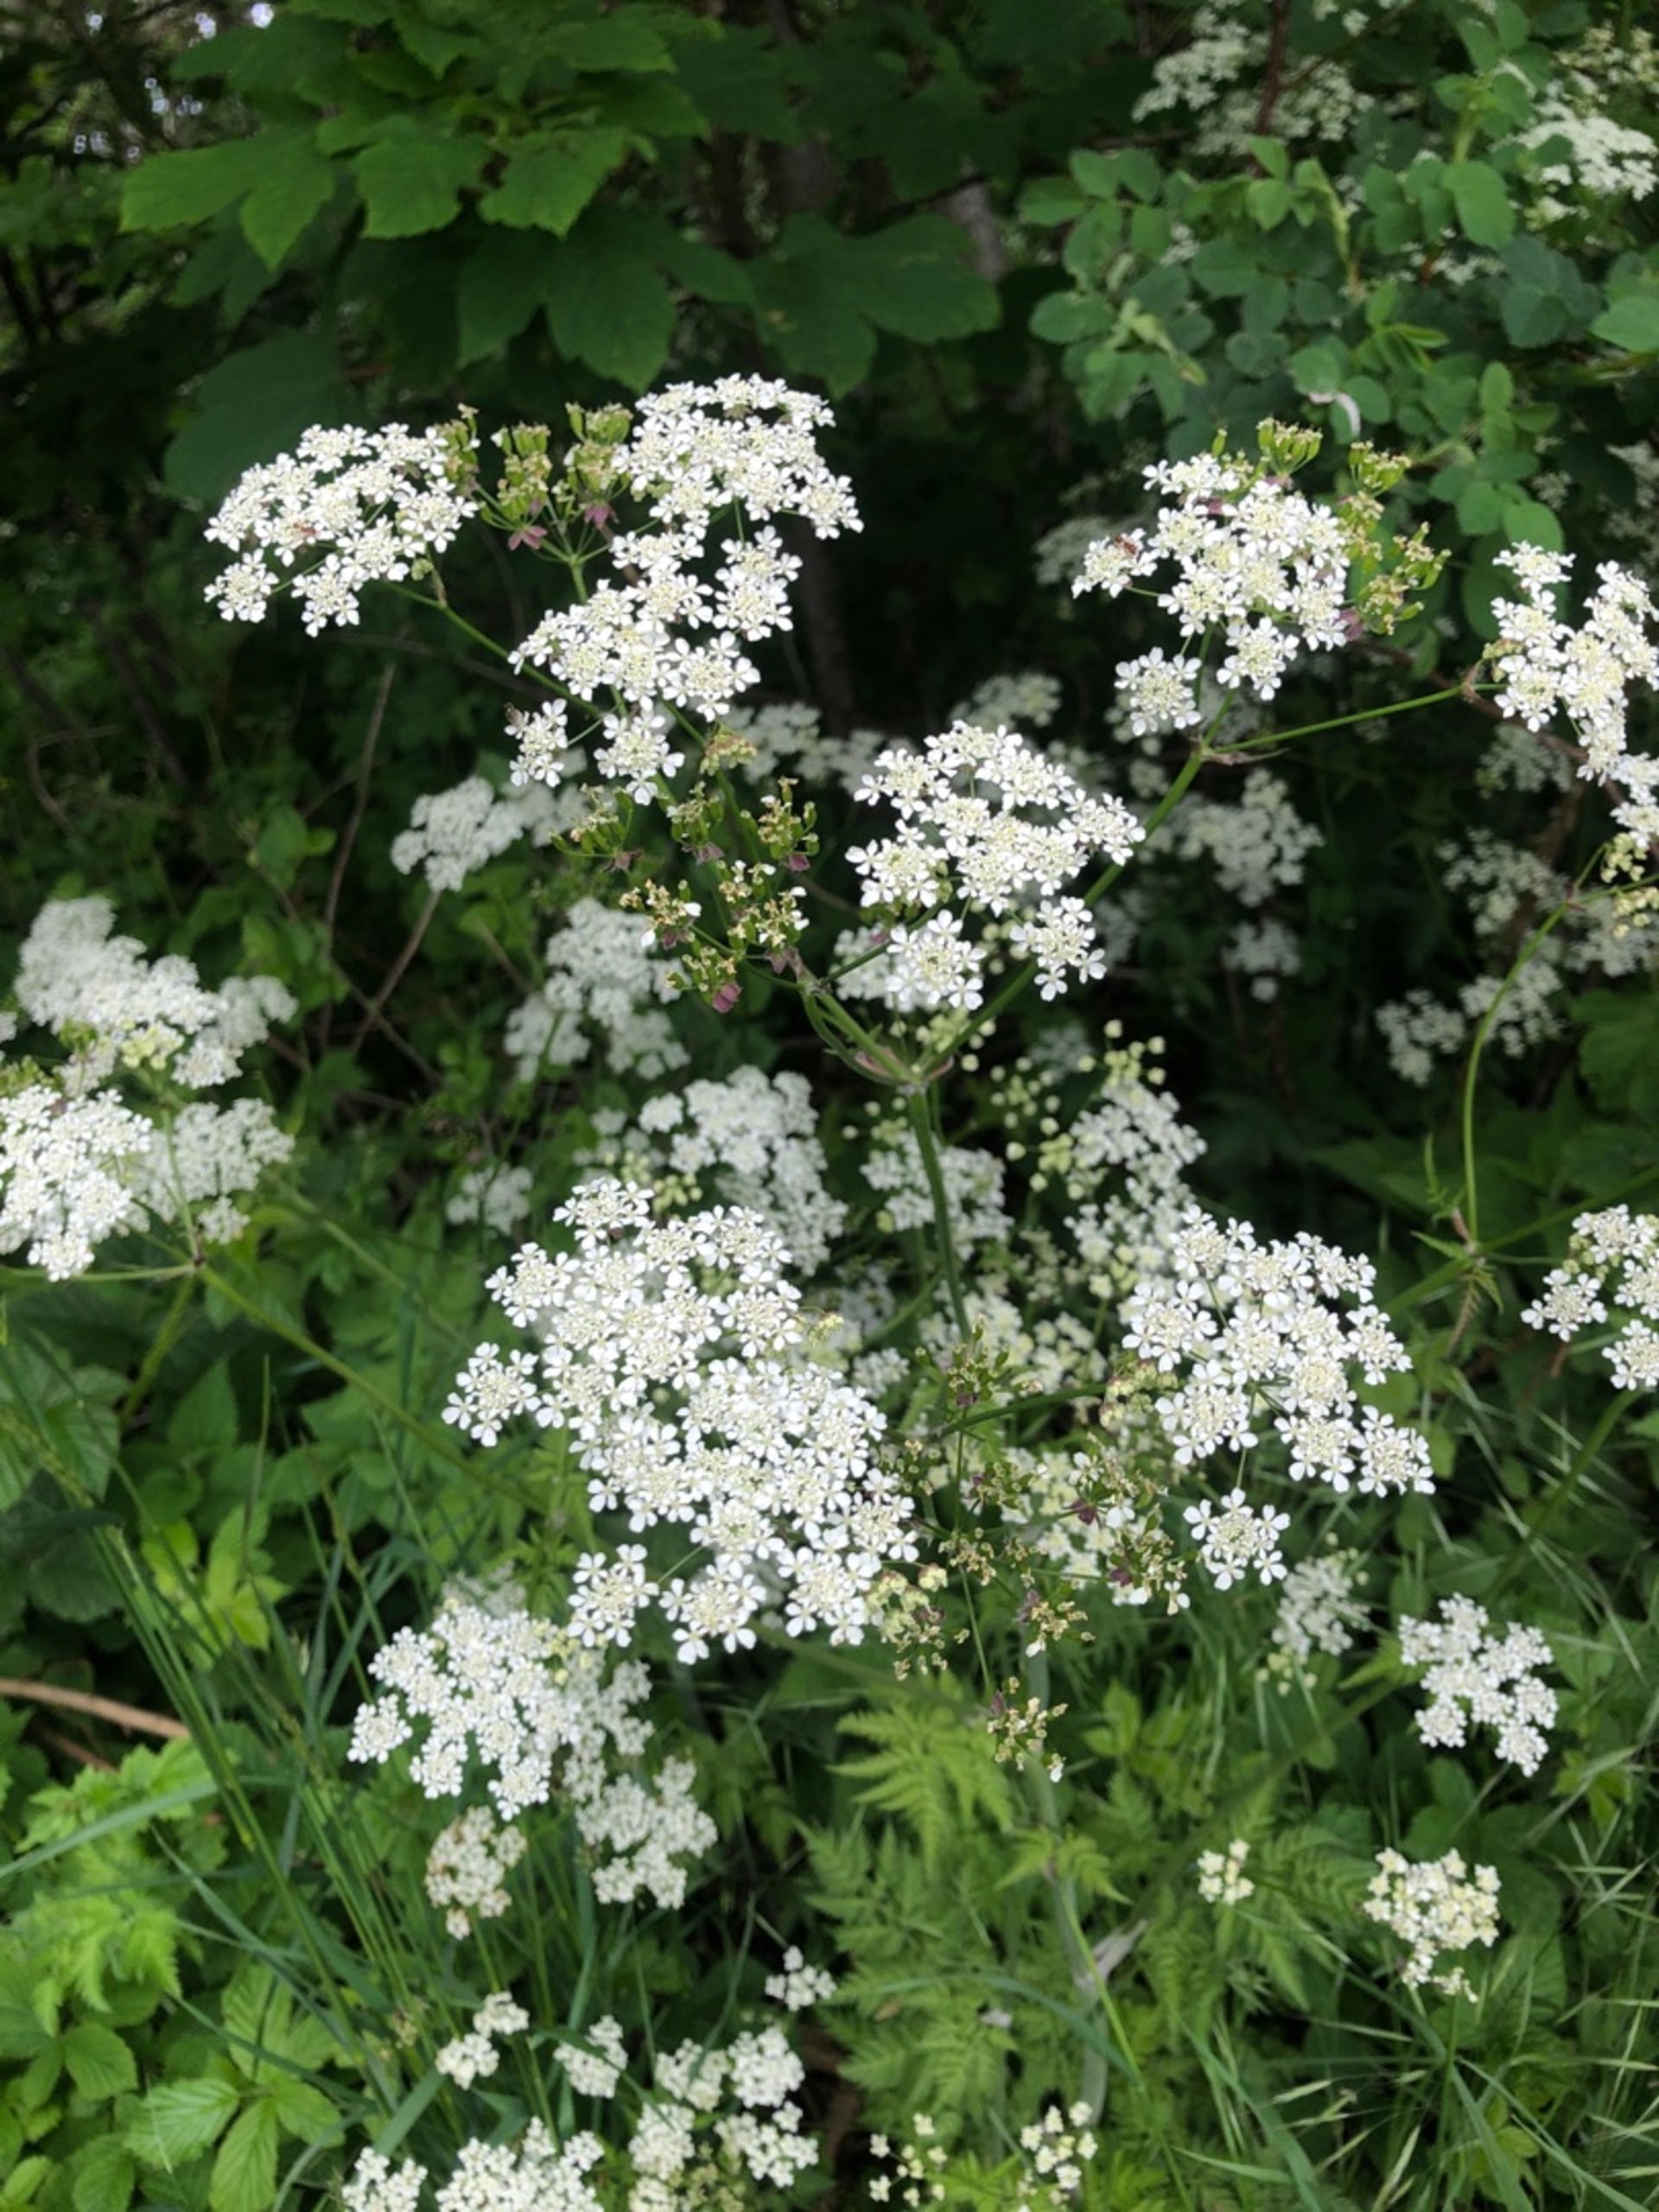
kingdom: Plantae
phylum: Tracheophyta
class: Magnoliopsida
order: Apiales
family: Apiaceae
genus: Anthriscus
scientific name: Anthriscus sylvestris
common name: Vild kørvel
